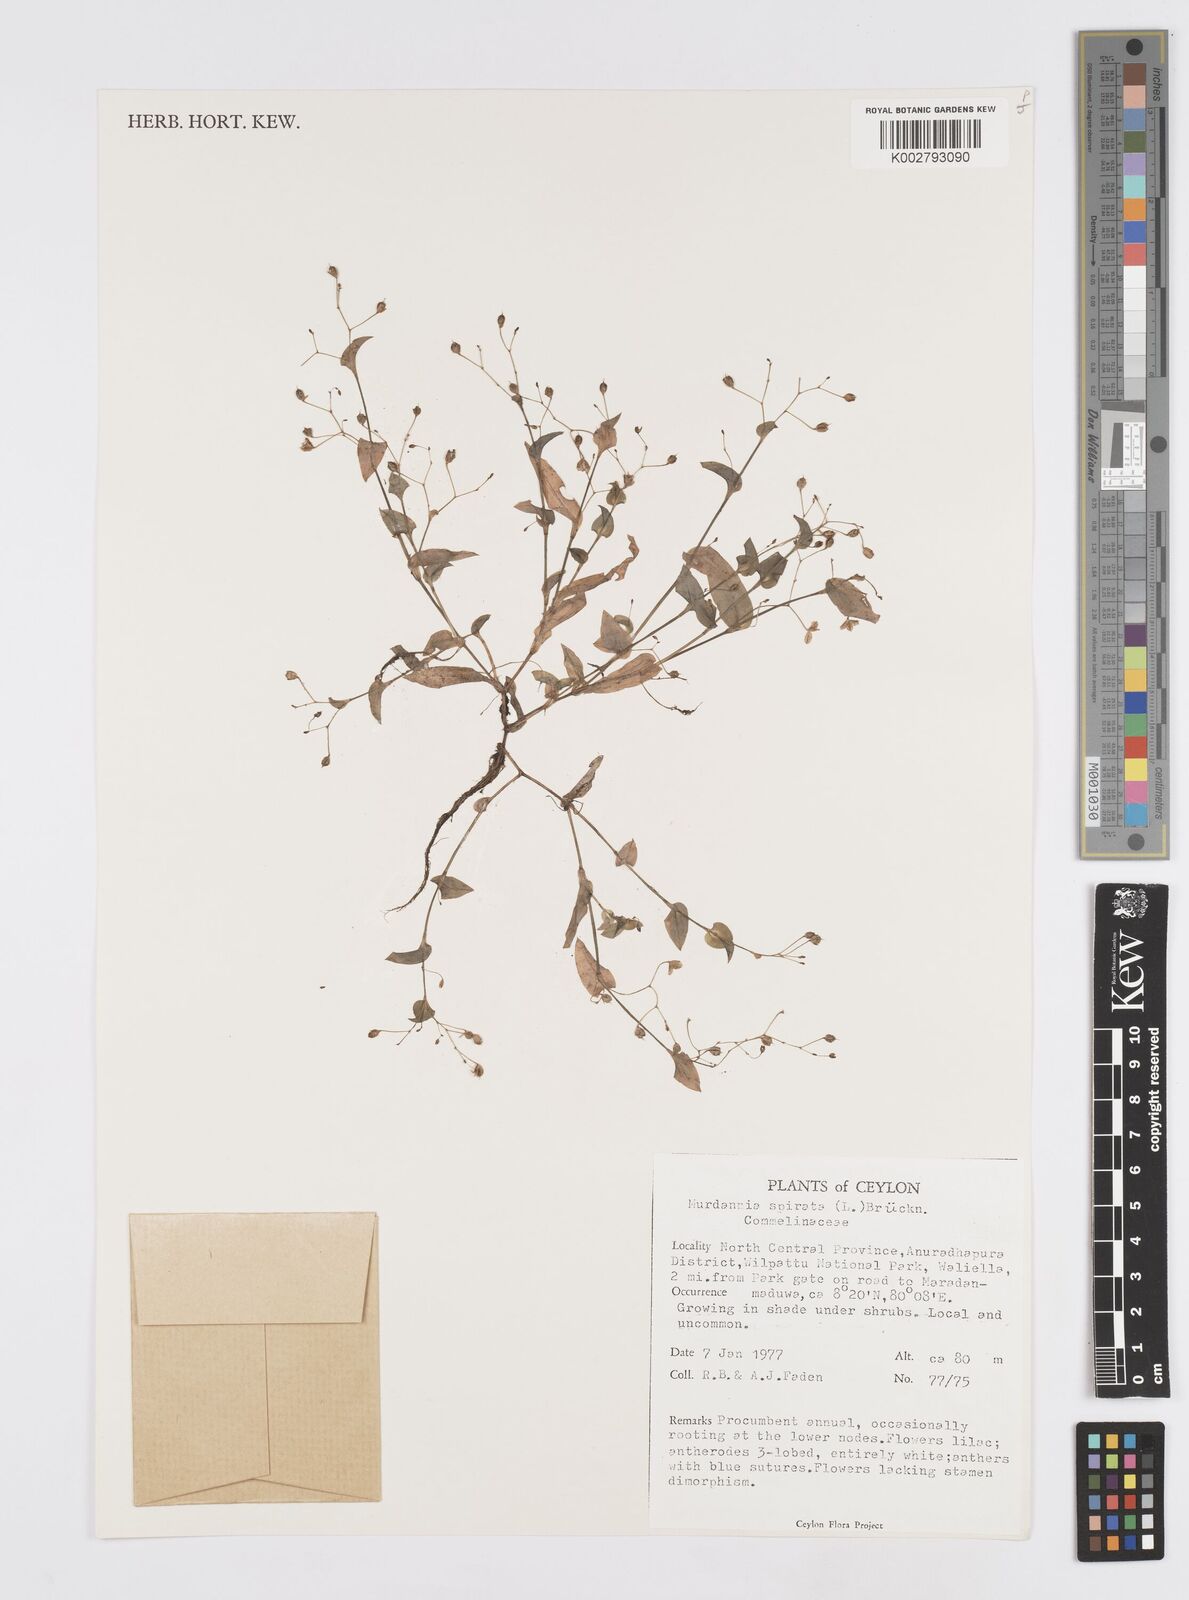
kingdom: Plantae
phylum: Tracheophyta
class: Liliopsida
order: Commelinales
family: Commelinaceae
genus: Murdannia
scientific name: Murdannia spirata
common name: Asiatic dewflower
